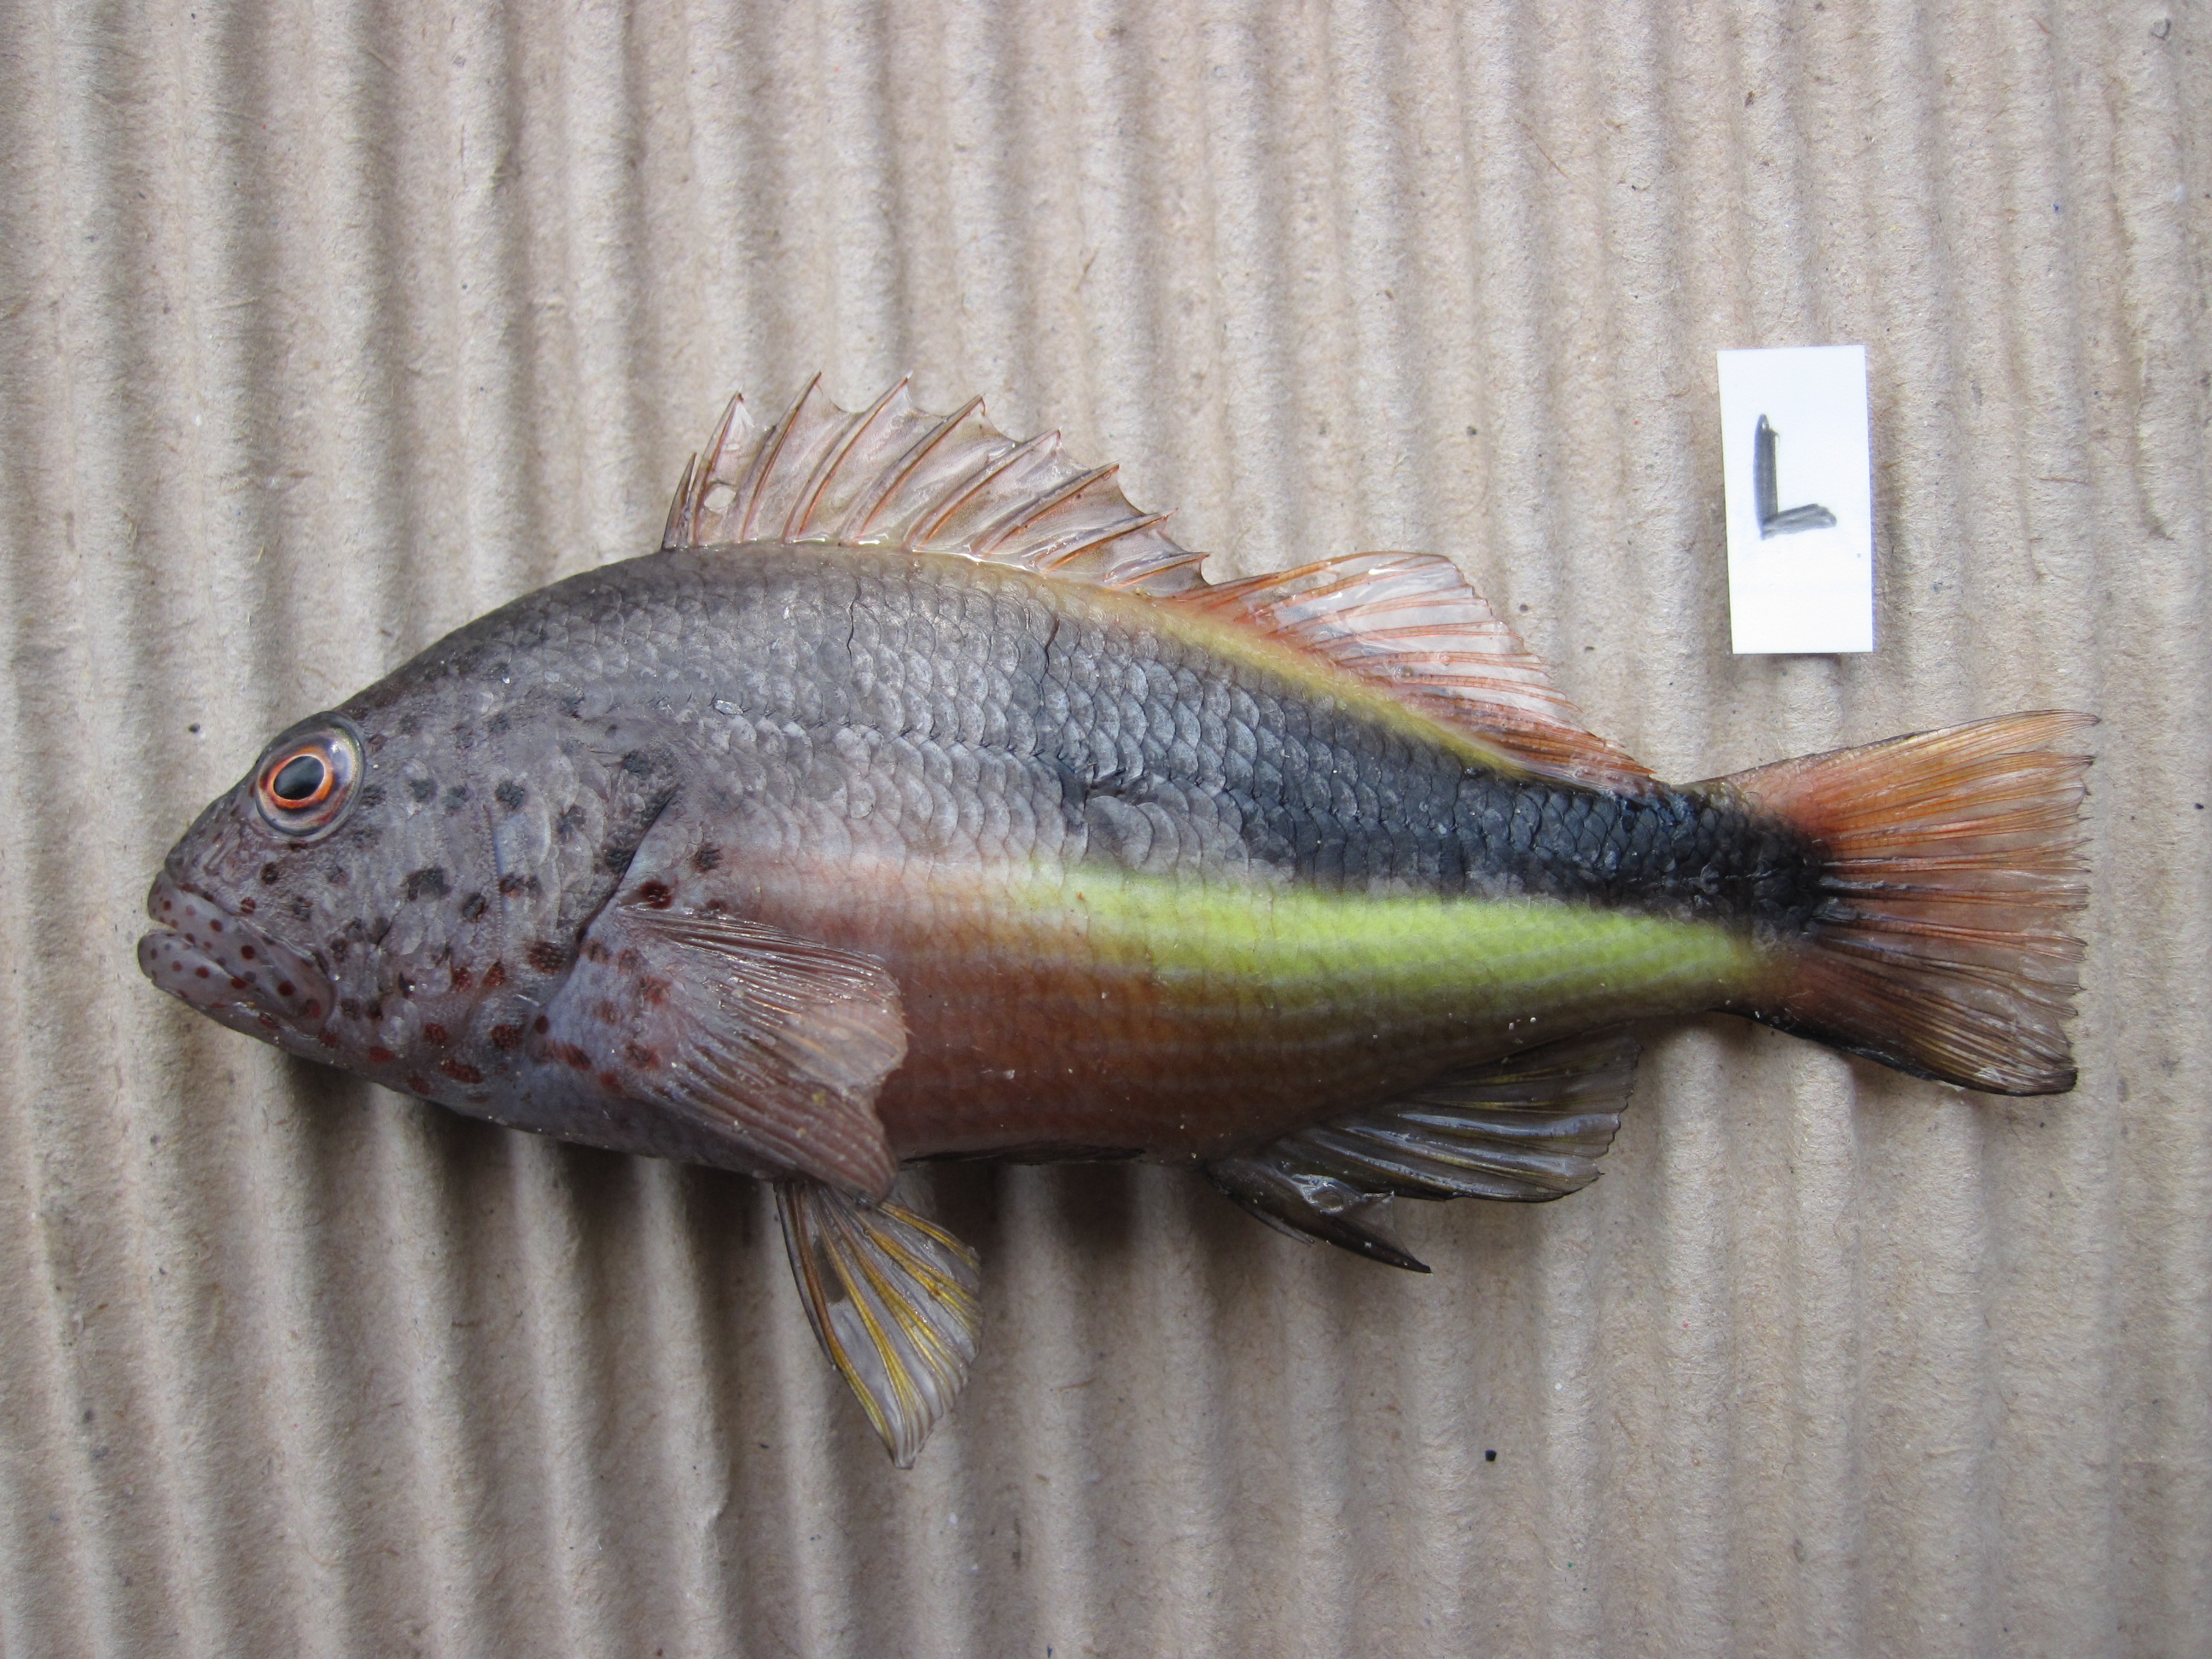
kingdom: Animalia
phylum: Chordata
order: Perciformes
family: Cirrhitidae
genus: Paracirrhites
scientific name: Paracirrhites forsteri
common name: Freckled hawkfish
